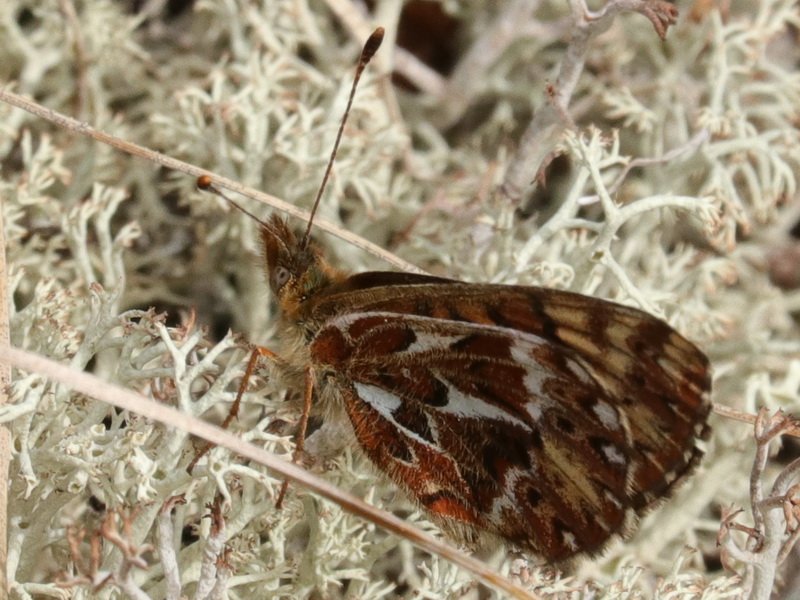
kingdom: Animalia
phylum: Arthropoda
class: Insecta
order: Lepidoptera
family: Nymphalidae
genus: Boloria
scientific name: Boloria freija
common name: Freija Fritillary
